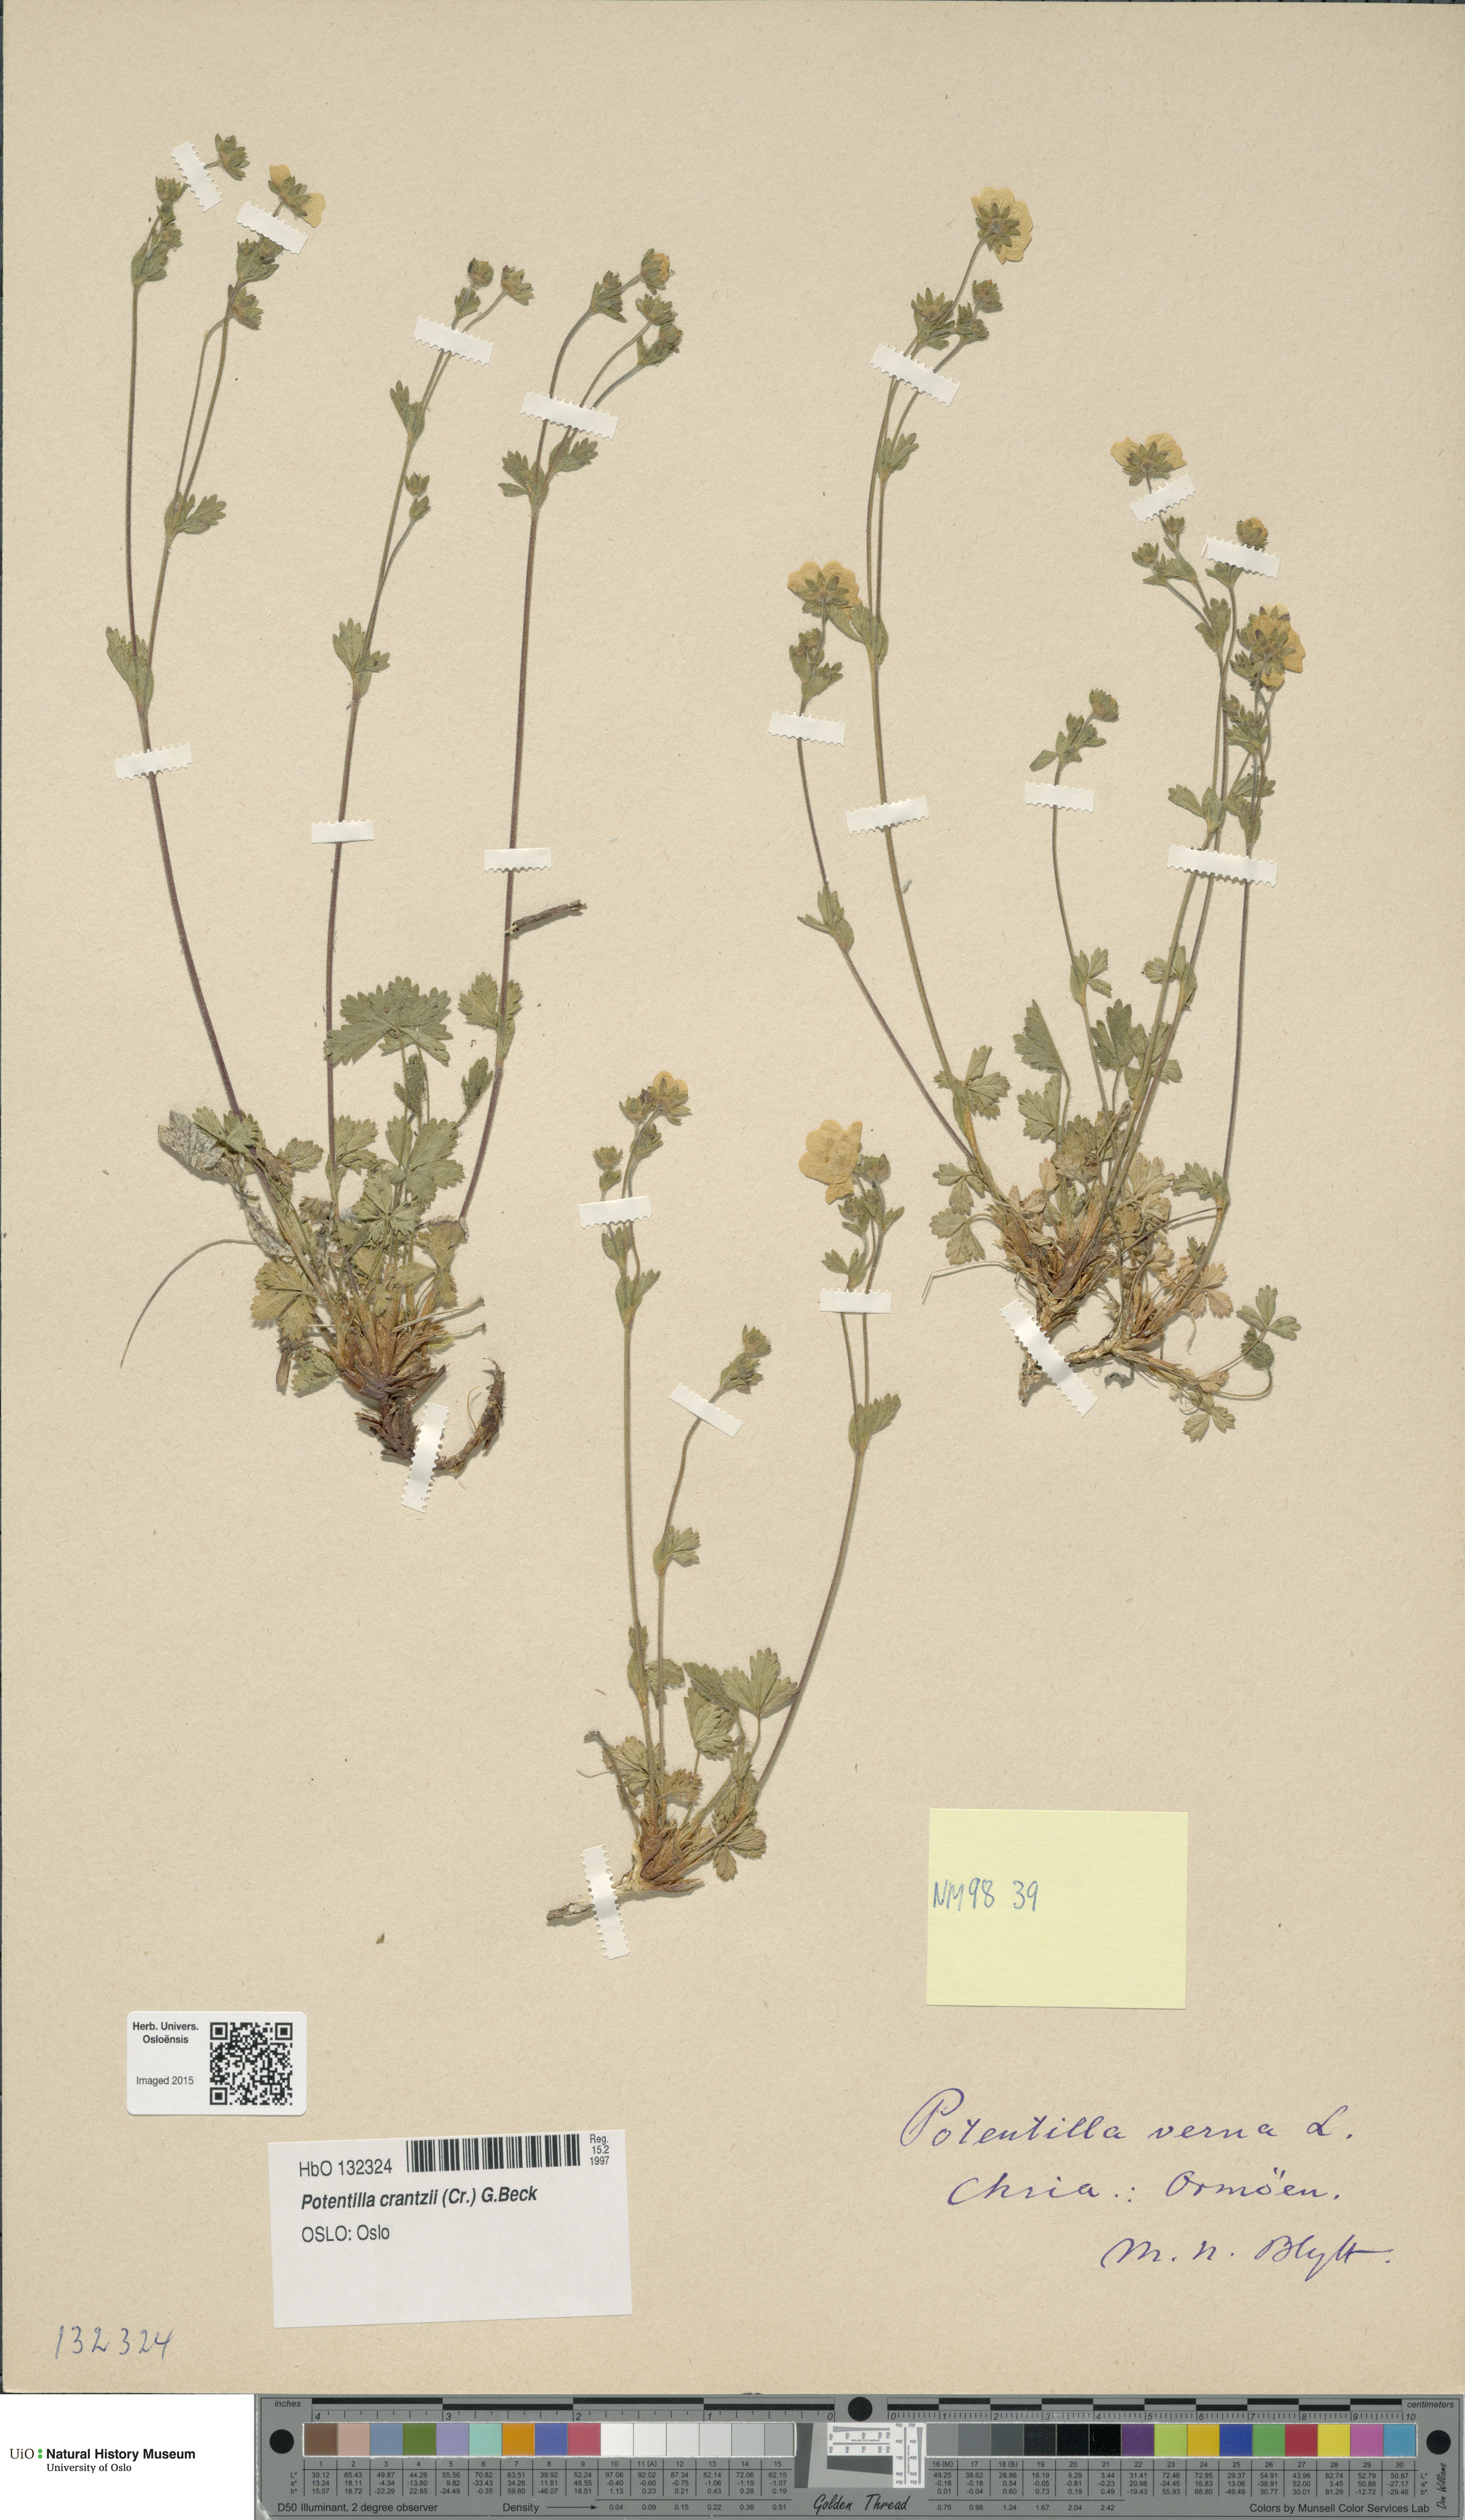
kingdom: Plantae
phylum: Tracheophyta
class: Magnoliopsida
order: Rosales
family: Rosaceae
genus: Potentilla
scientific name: Potentilla verna
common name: Spring cinquefoil
